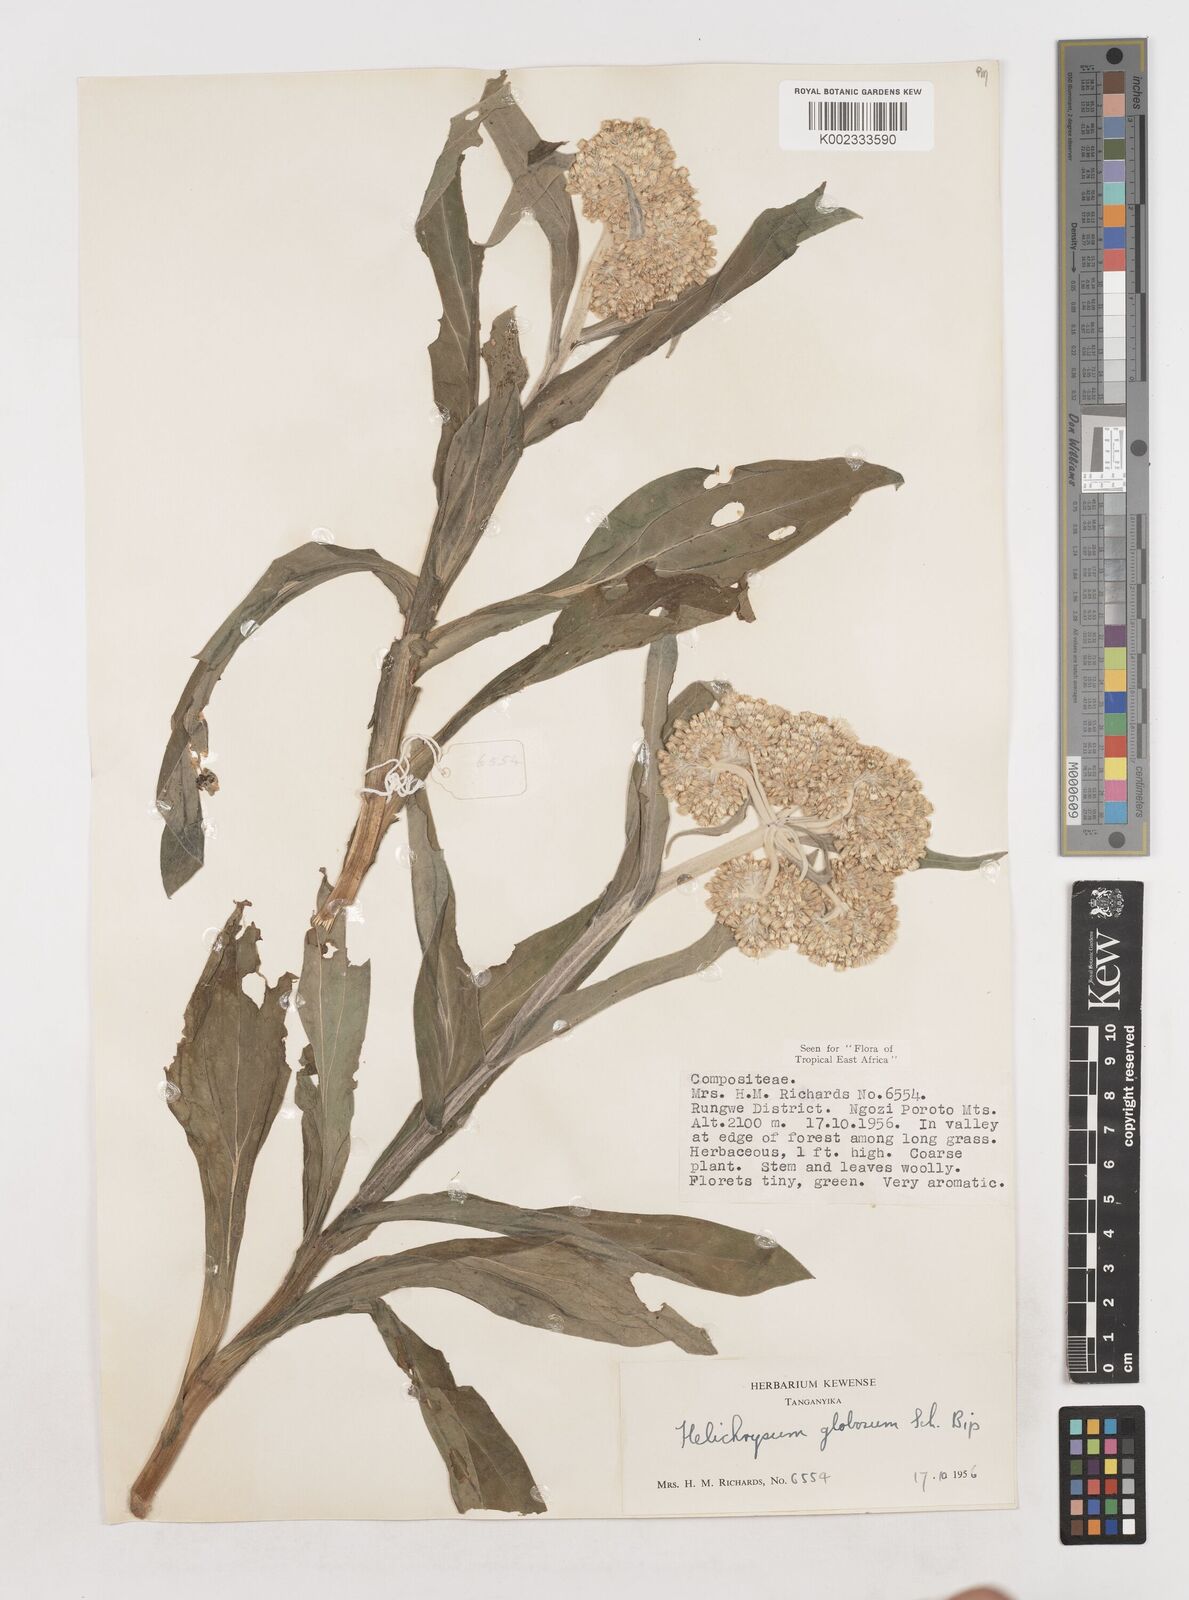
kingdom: Plantae
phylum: Tracheophyta
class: Magnoliopsida
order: Asterales
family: Asteraceae
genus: Helichrysum
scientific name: Helichrysum globosum
